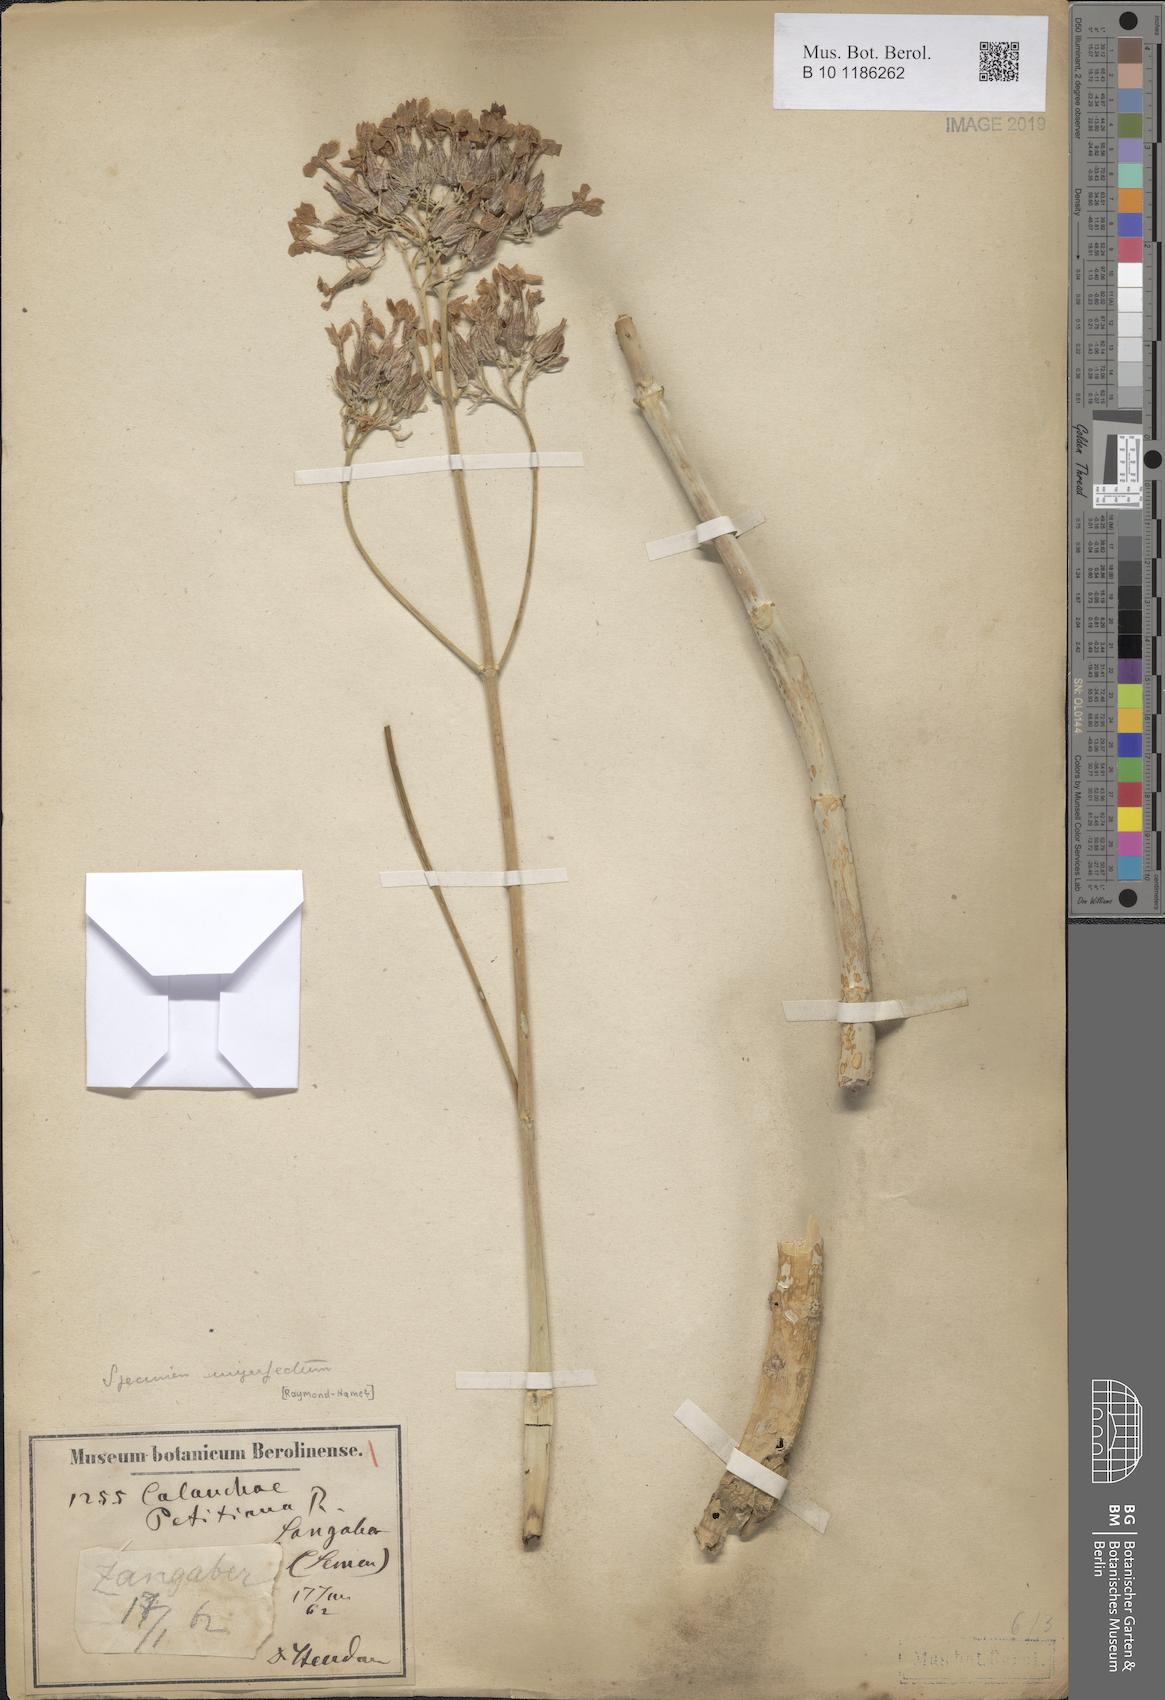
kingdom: Plantae
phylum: Tracheophyta
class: Magnoliopsida
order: Saxifragales
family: Crassulaceae
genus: Kalanchoe
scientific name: Kalanchoe petitiana
